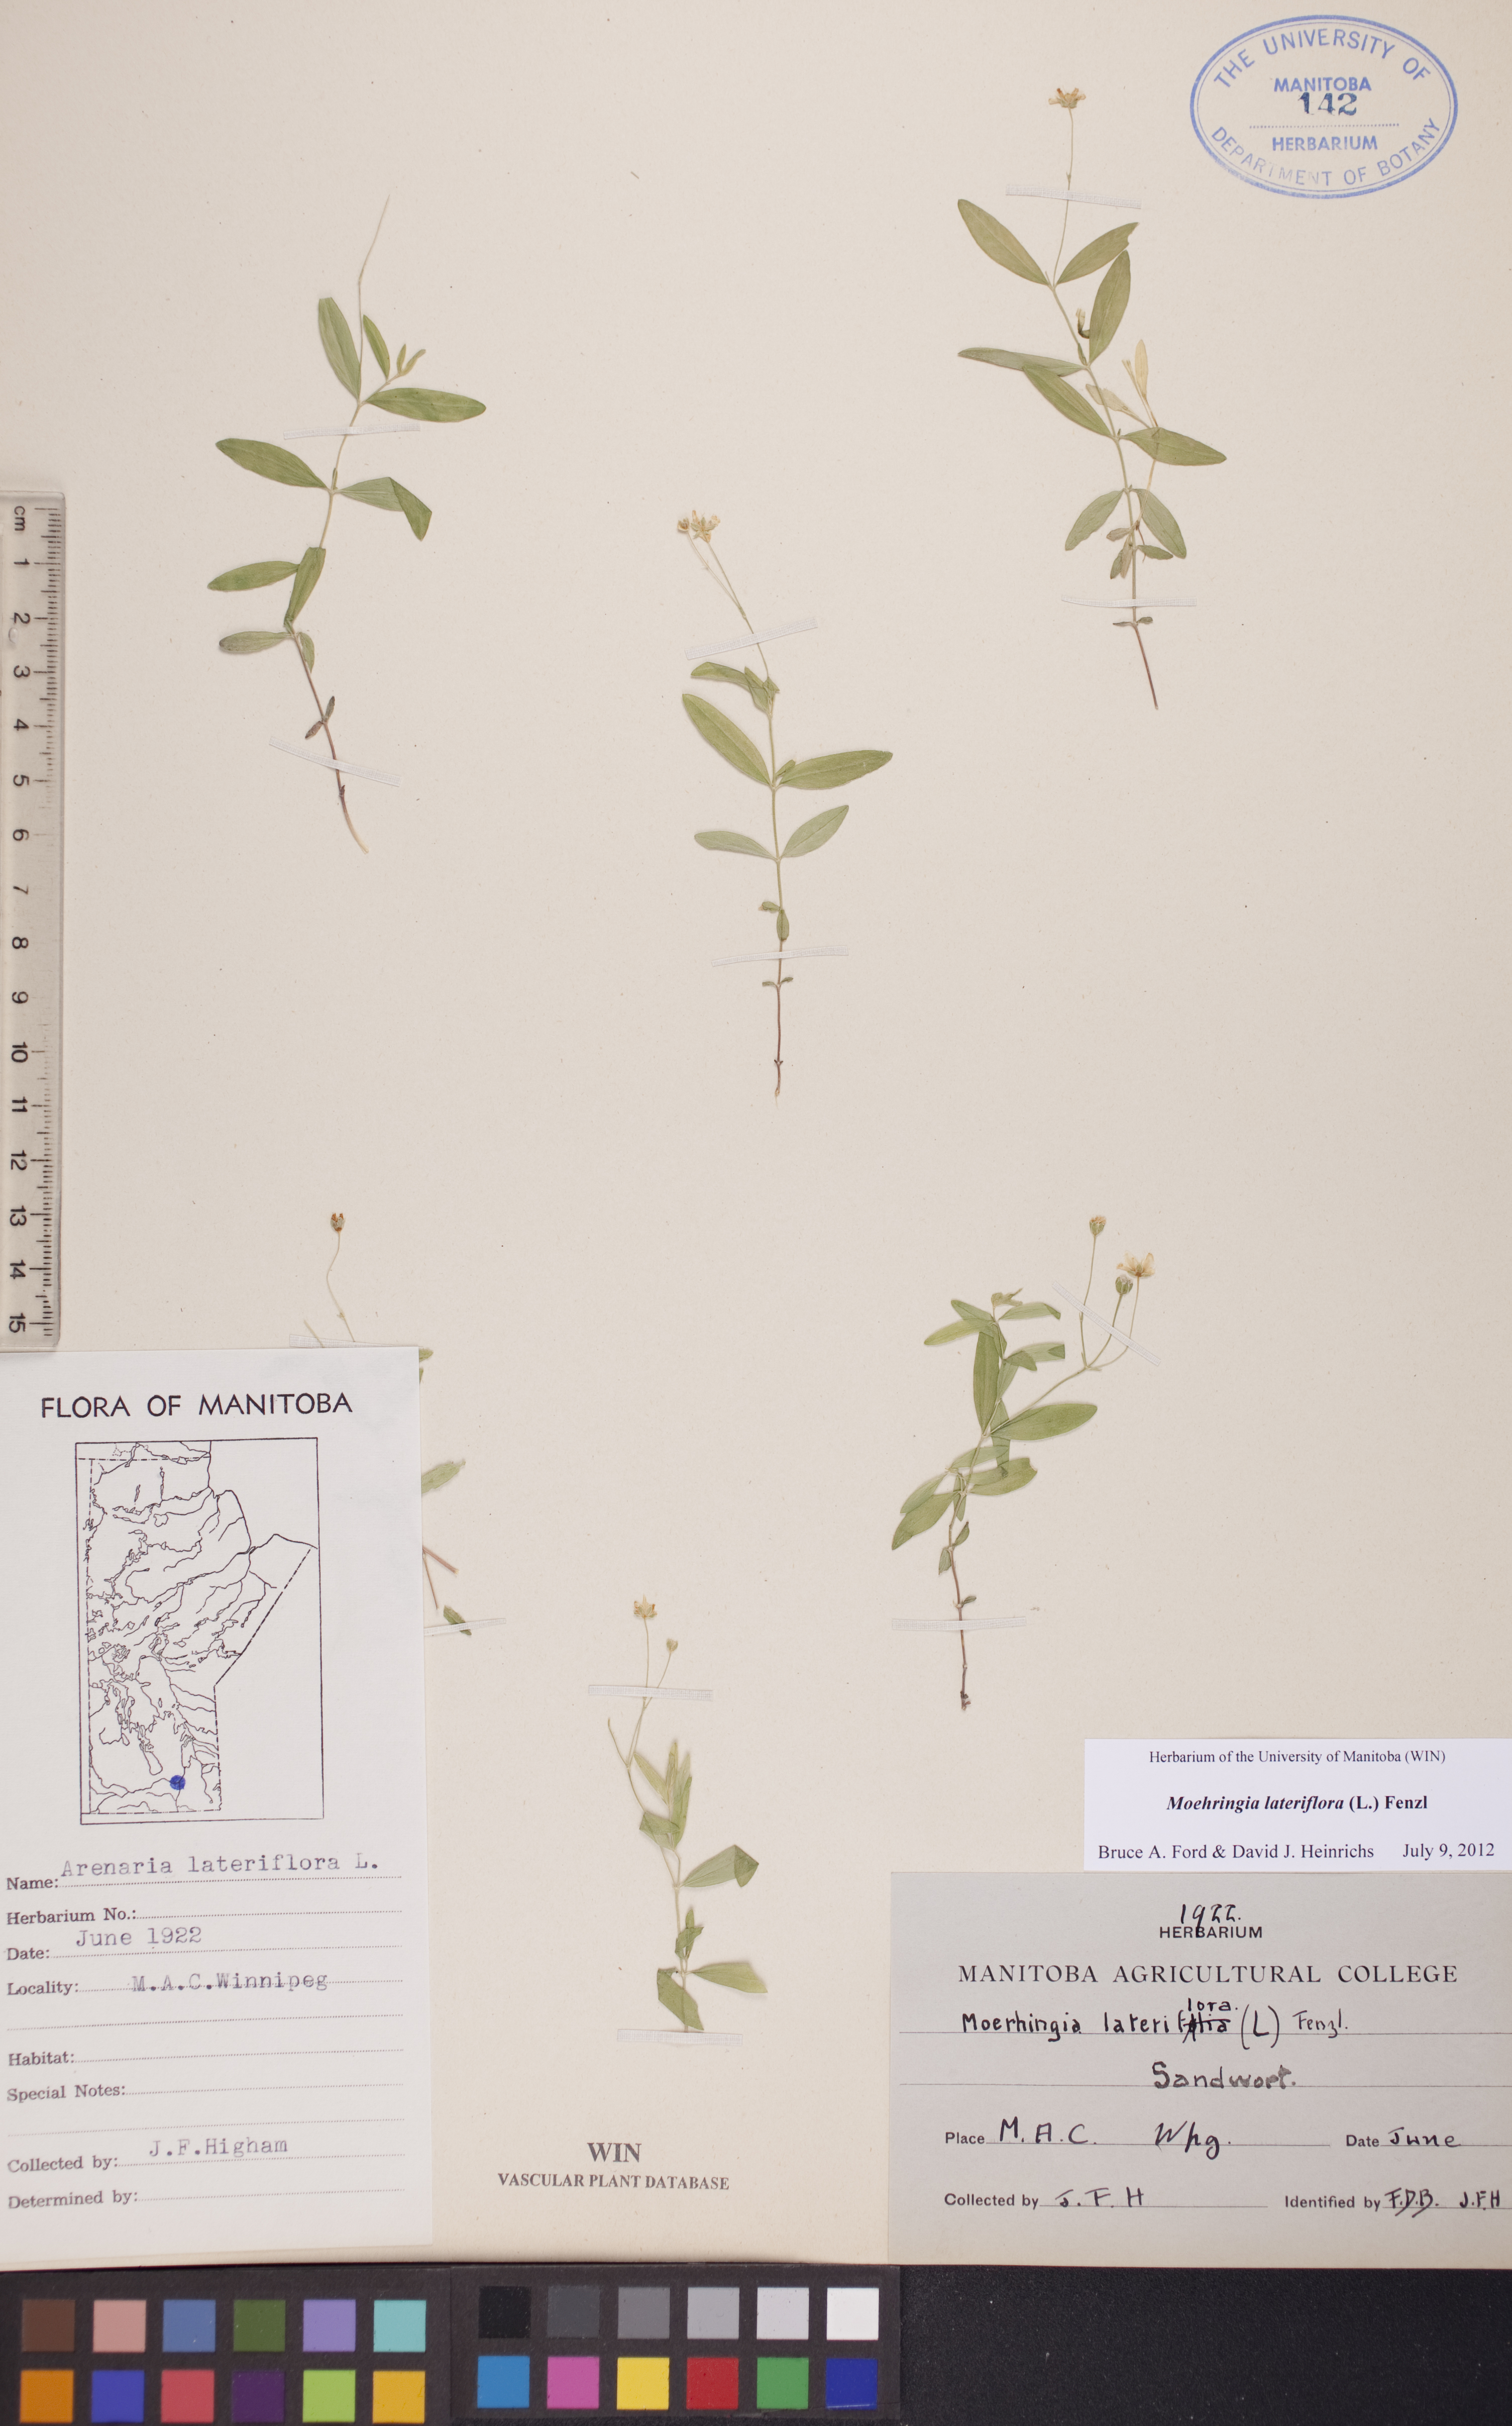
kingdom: Plantae
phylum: Tracheophyta
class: Magnoliopsida
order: Caryophyllales
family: Caryophyllaceae
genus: Moehringia
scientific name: Moehringia lateriflora
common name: Blunt-leaved sandwort
